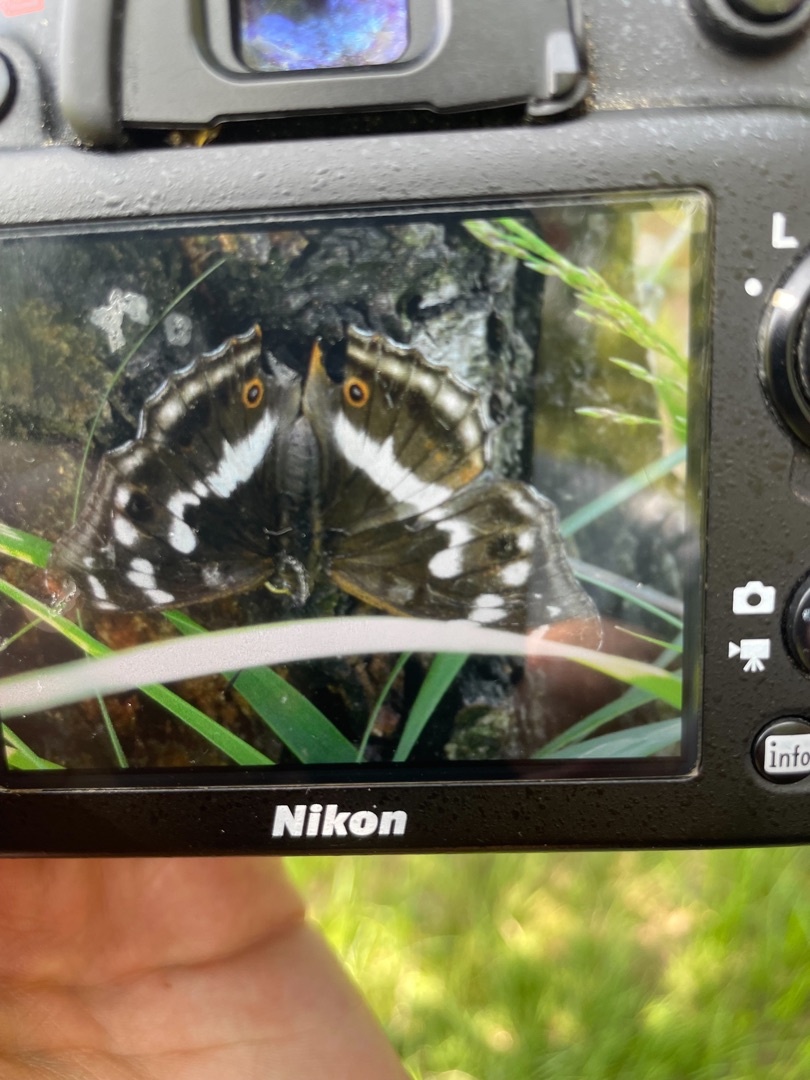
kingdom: Animalia
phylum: Arthropoda
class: Insecta
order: Lepidoptera
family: Nymphalidae
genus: Apatura
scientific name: Apatura iris
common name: Iris
